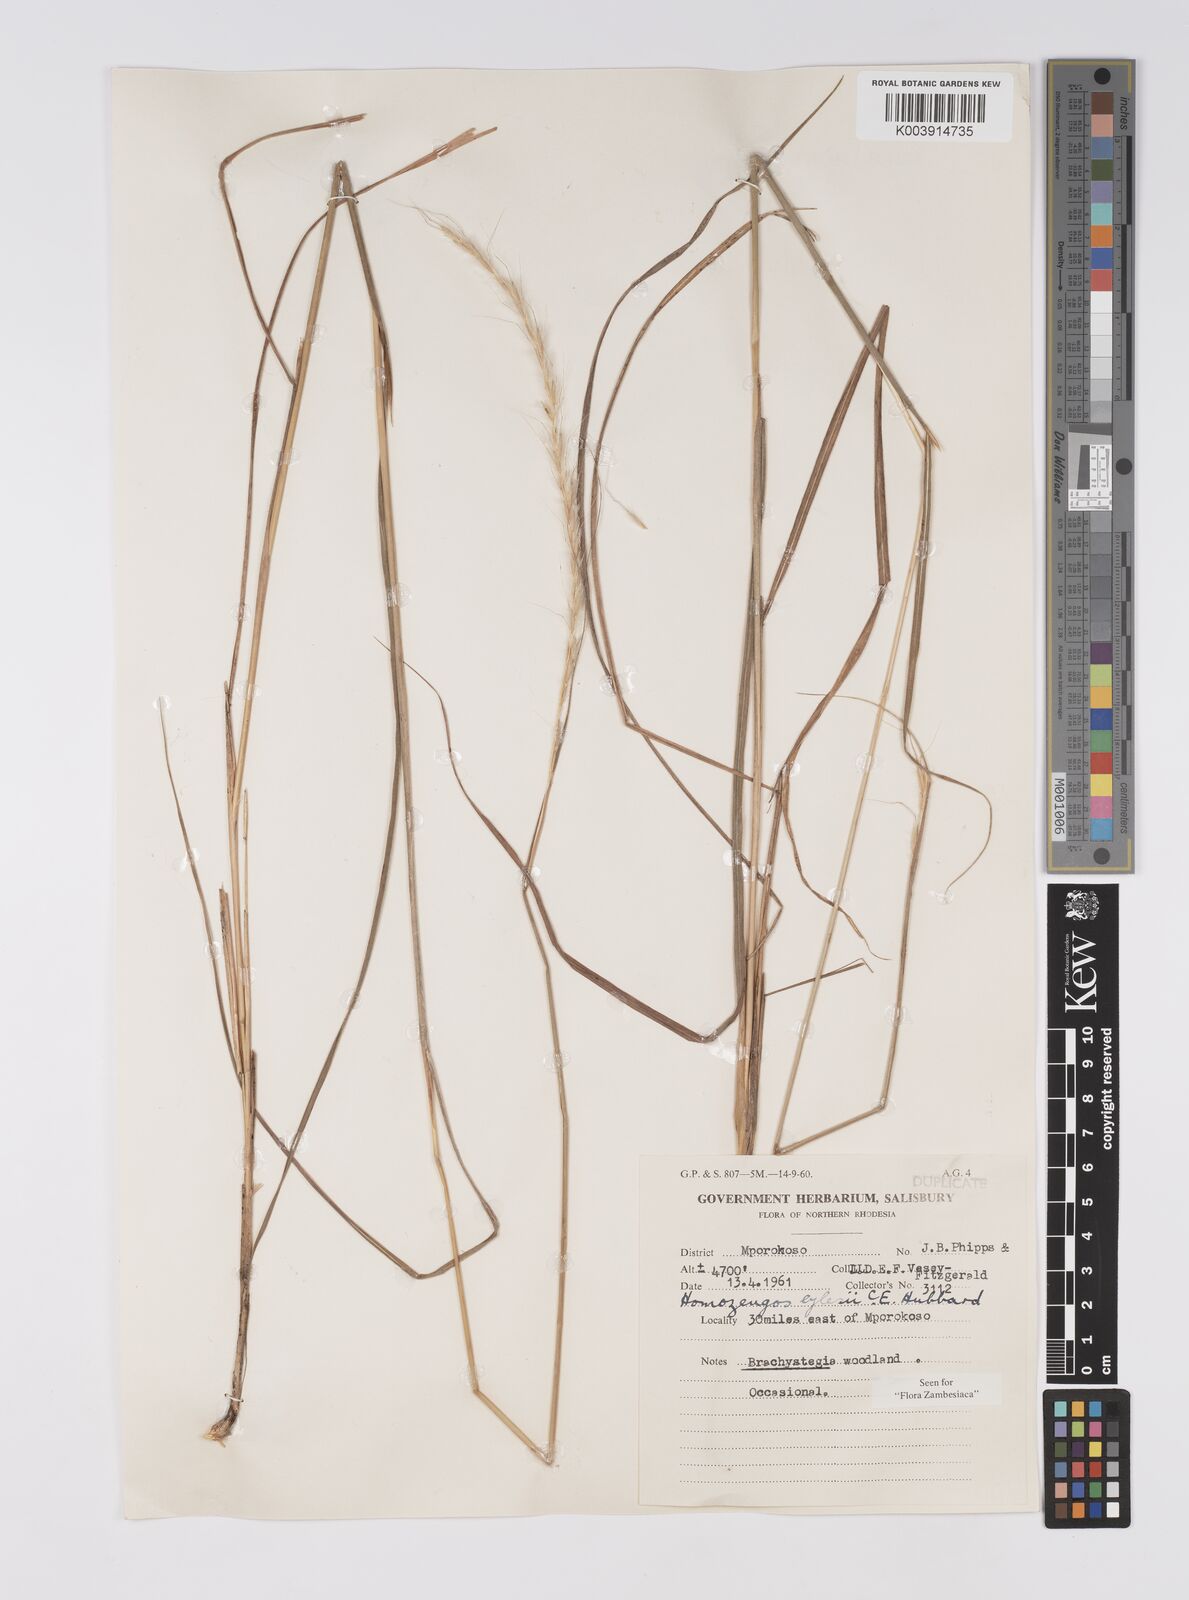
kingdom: Plantae
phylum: Tracheophyta
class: Liliopsida
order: Poales
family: Poaceae
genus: Homozeugos
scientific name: Homozeugos eylesii
